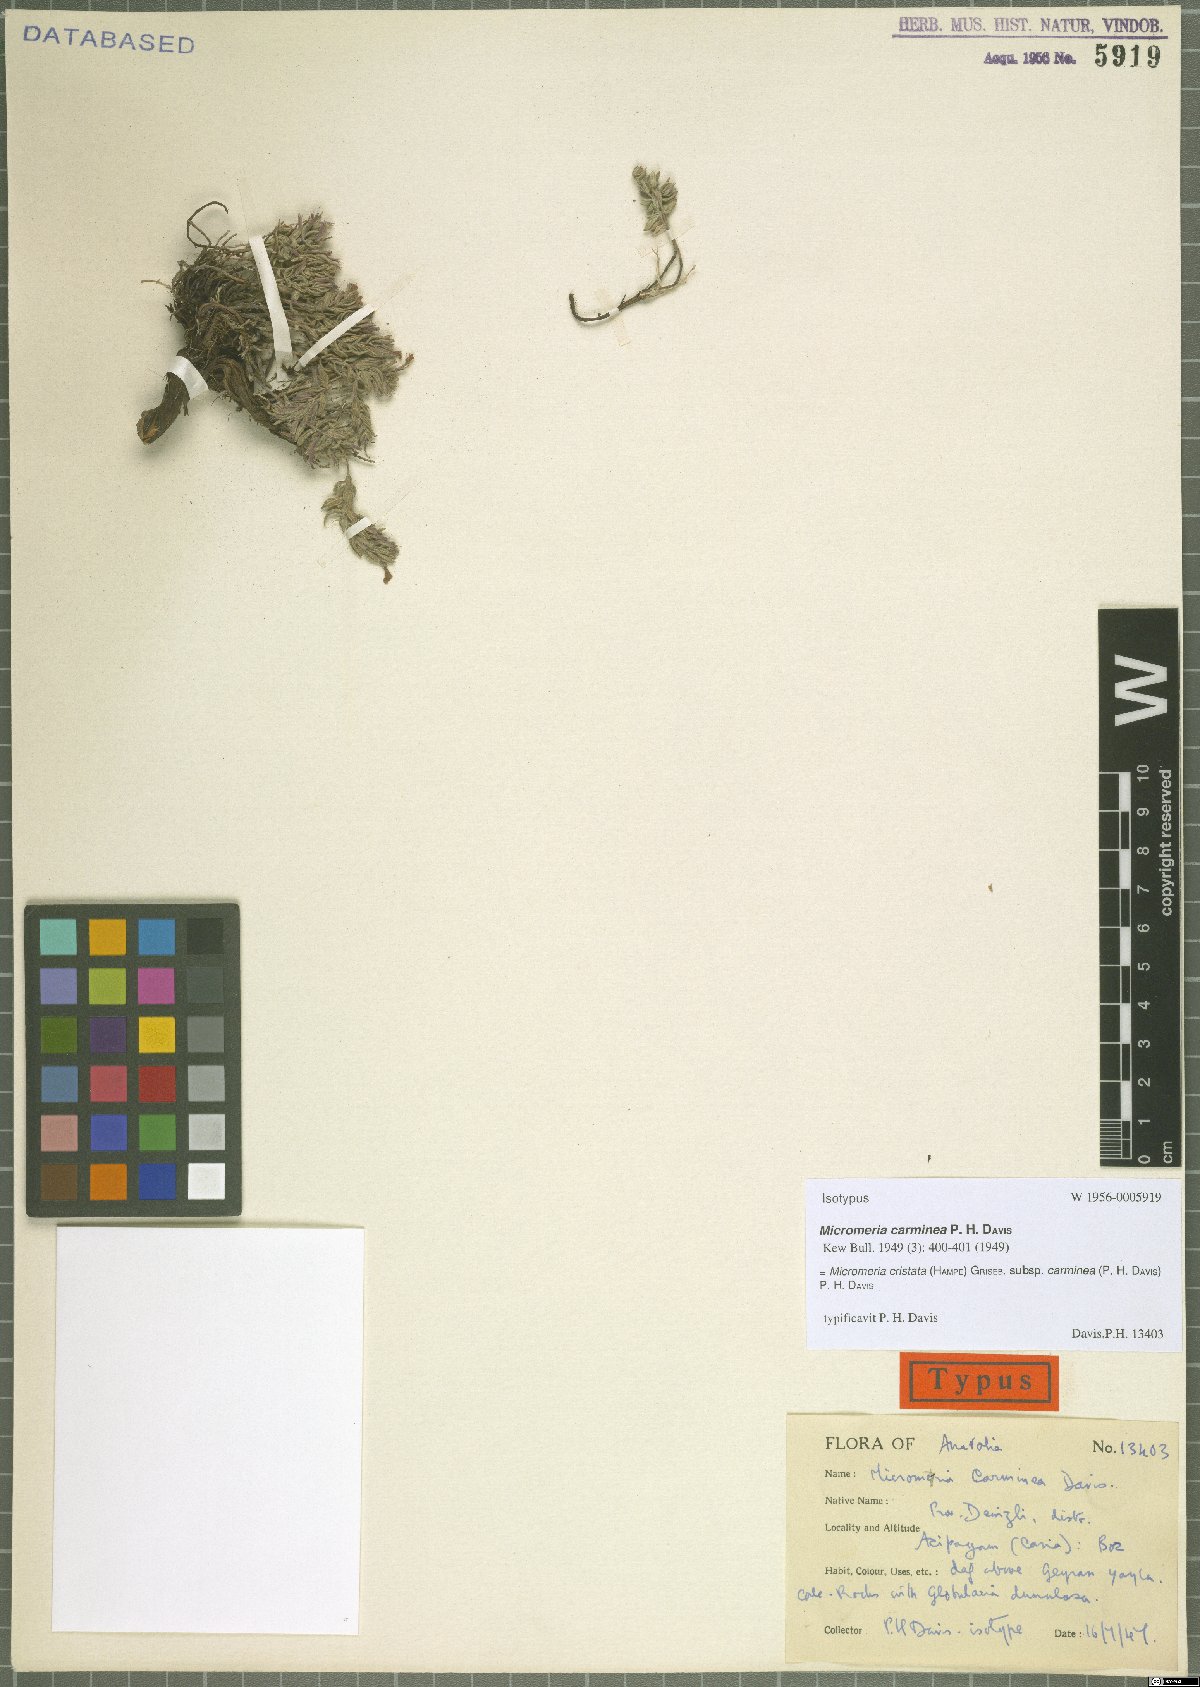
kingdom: Plantae
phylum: Tracheophyta
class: Magnoliopsida
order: Lamiales
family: Lamiaceae
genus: Micromeria
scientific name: Micromeria cristata
